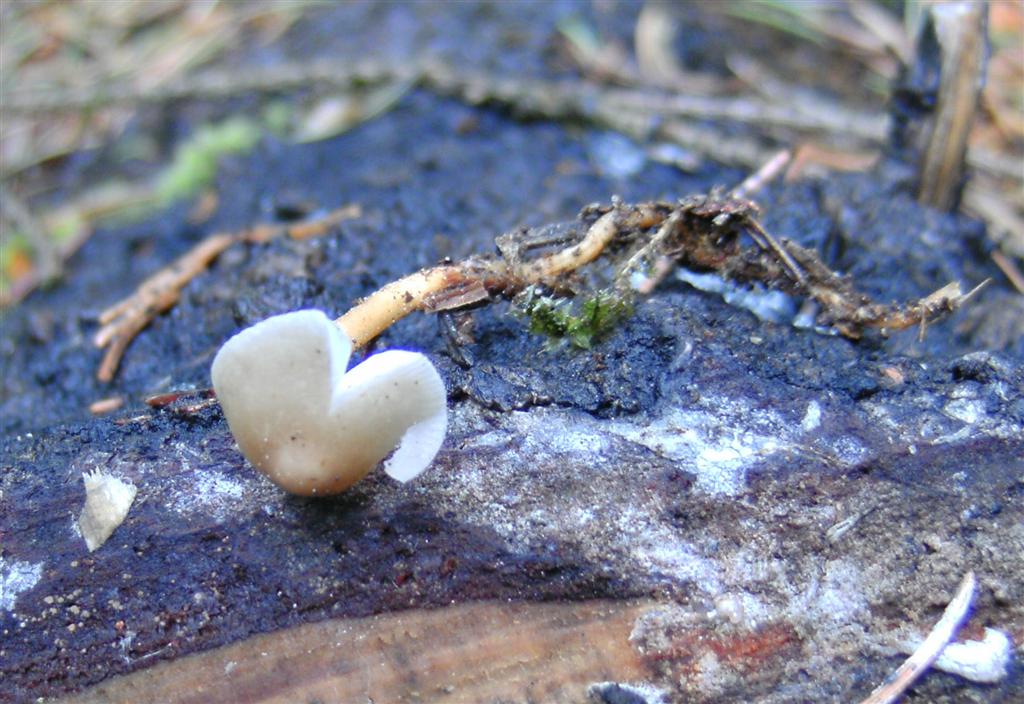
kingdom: Fungi
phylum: Basidiomycota
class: Agaricomycetes
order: Agaricales
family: Physalacriaceae
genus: Strobilurus
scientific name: Strobilurus esculentus
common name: gran-koglehat
